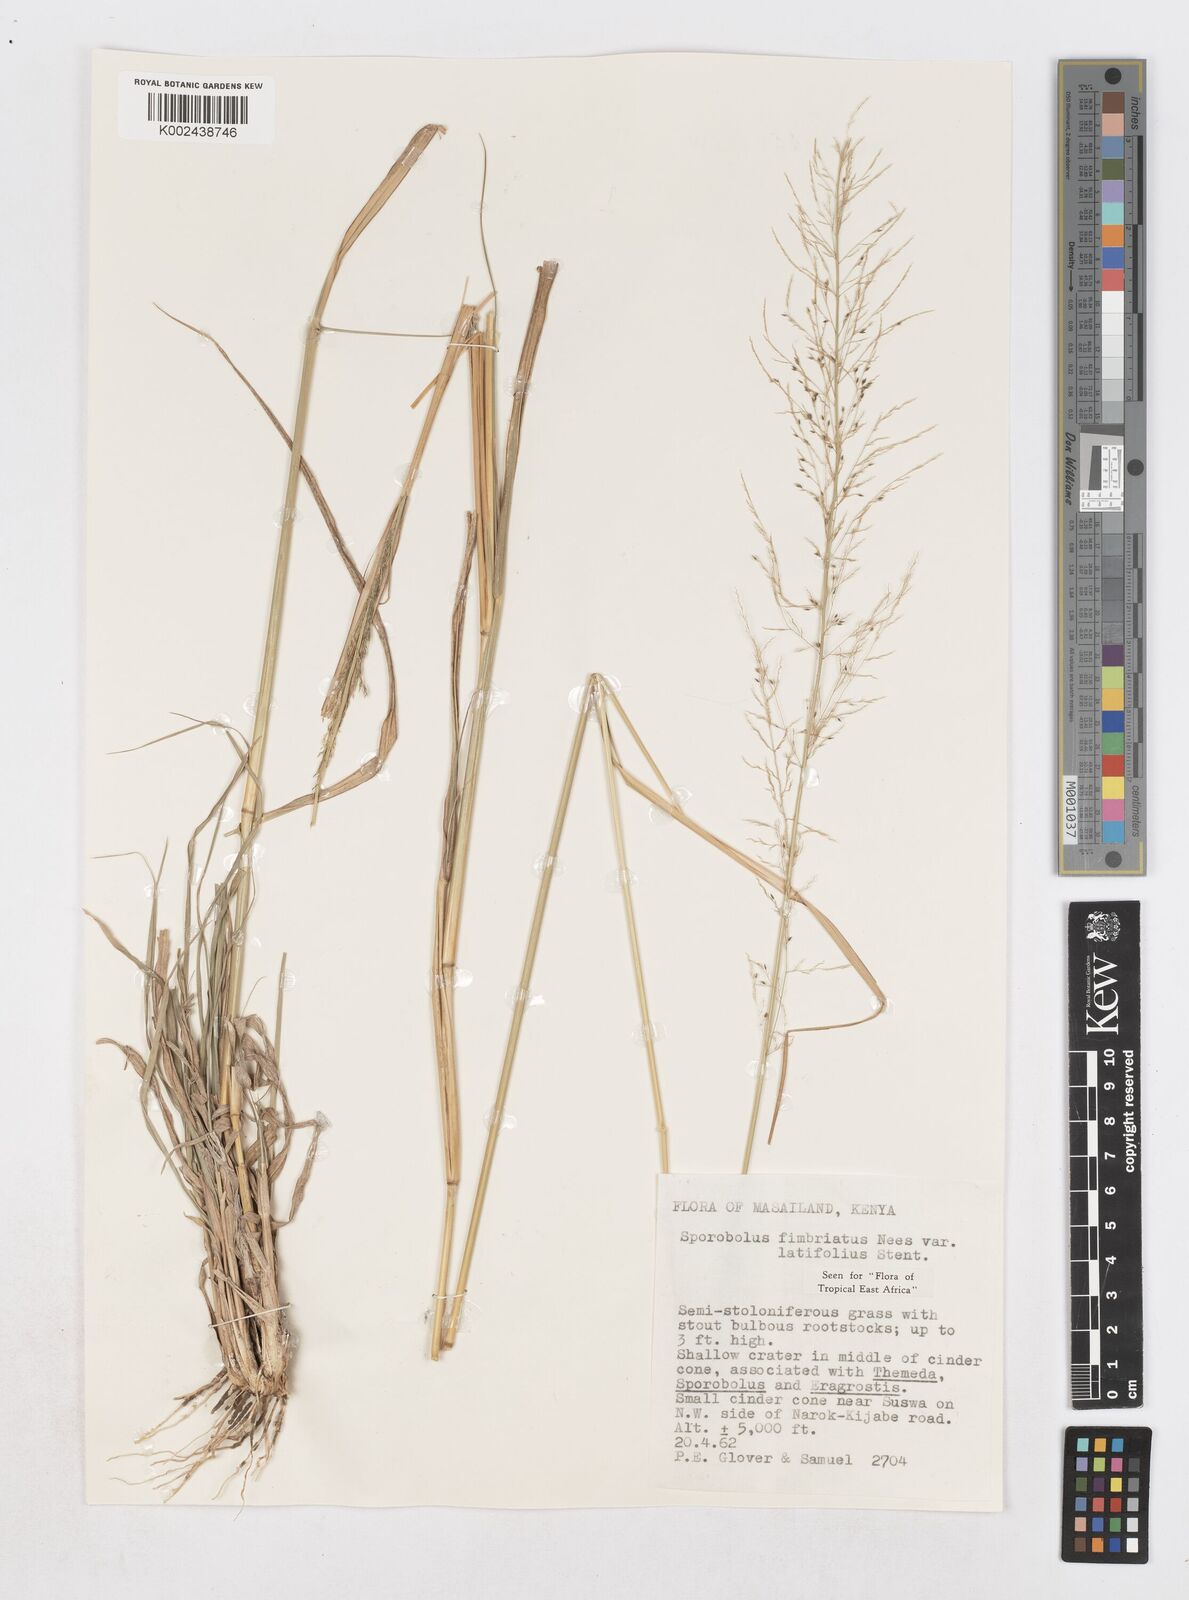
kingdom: Plantae
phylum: Tracheophyta
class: Liliopsida
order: Poales
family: Poaceae
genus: Sporobolus
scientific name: Sporobolus fimbriatus
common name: Fringed dropseed
